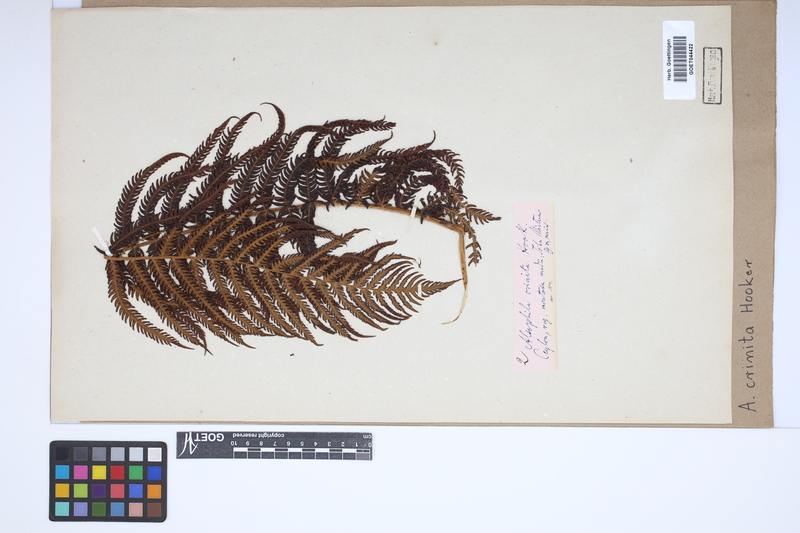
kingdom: Plantae
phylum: Tracheophyta
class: Polypodiopsida
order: Cyatheales
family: Cyatheaceae
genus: Alsophila
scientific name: Alsophila crinita
